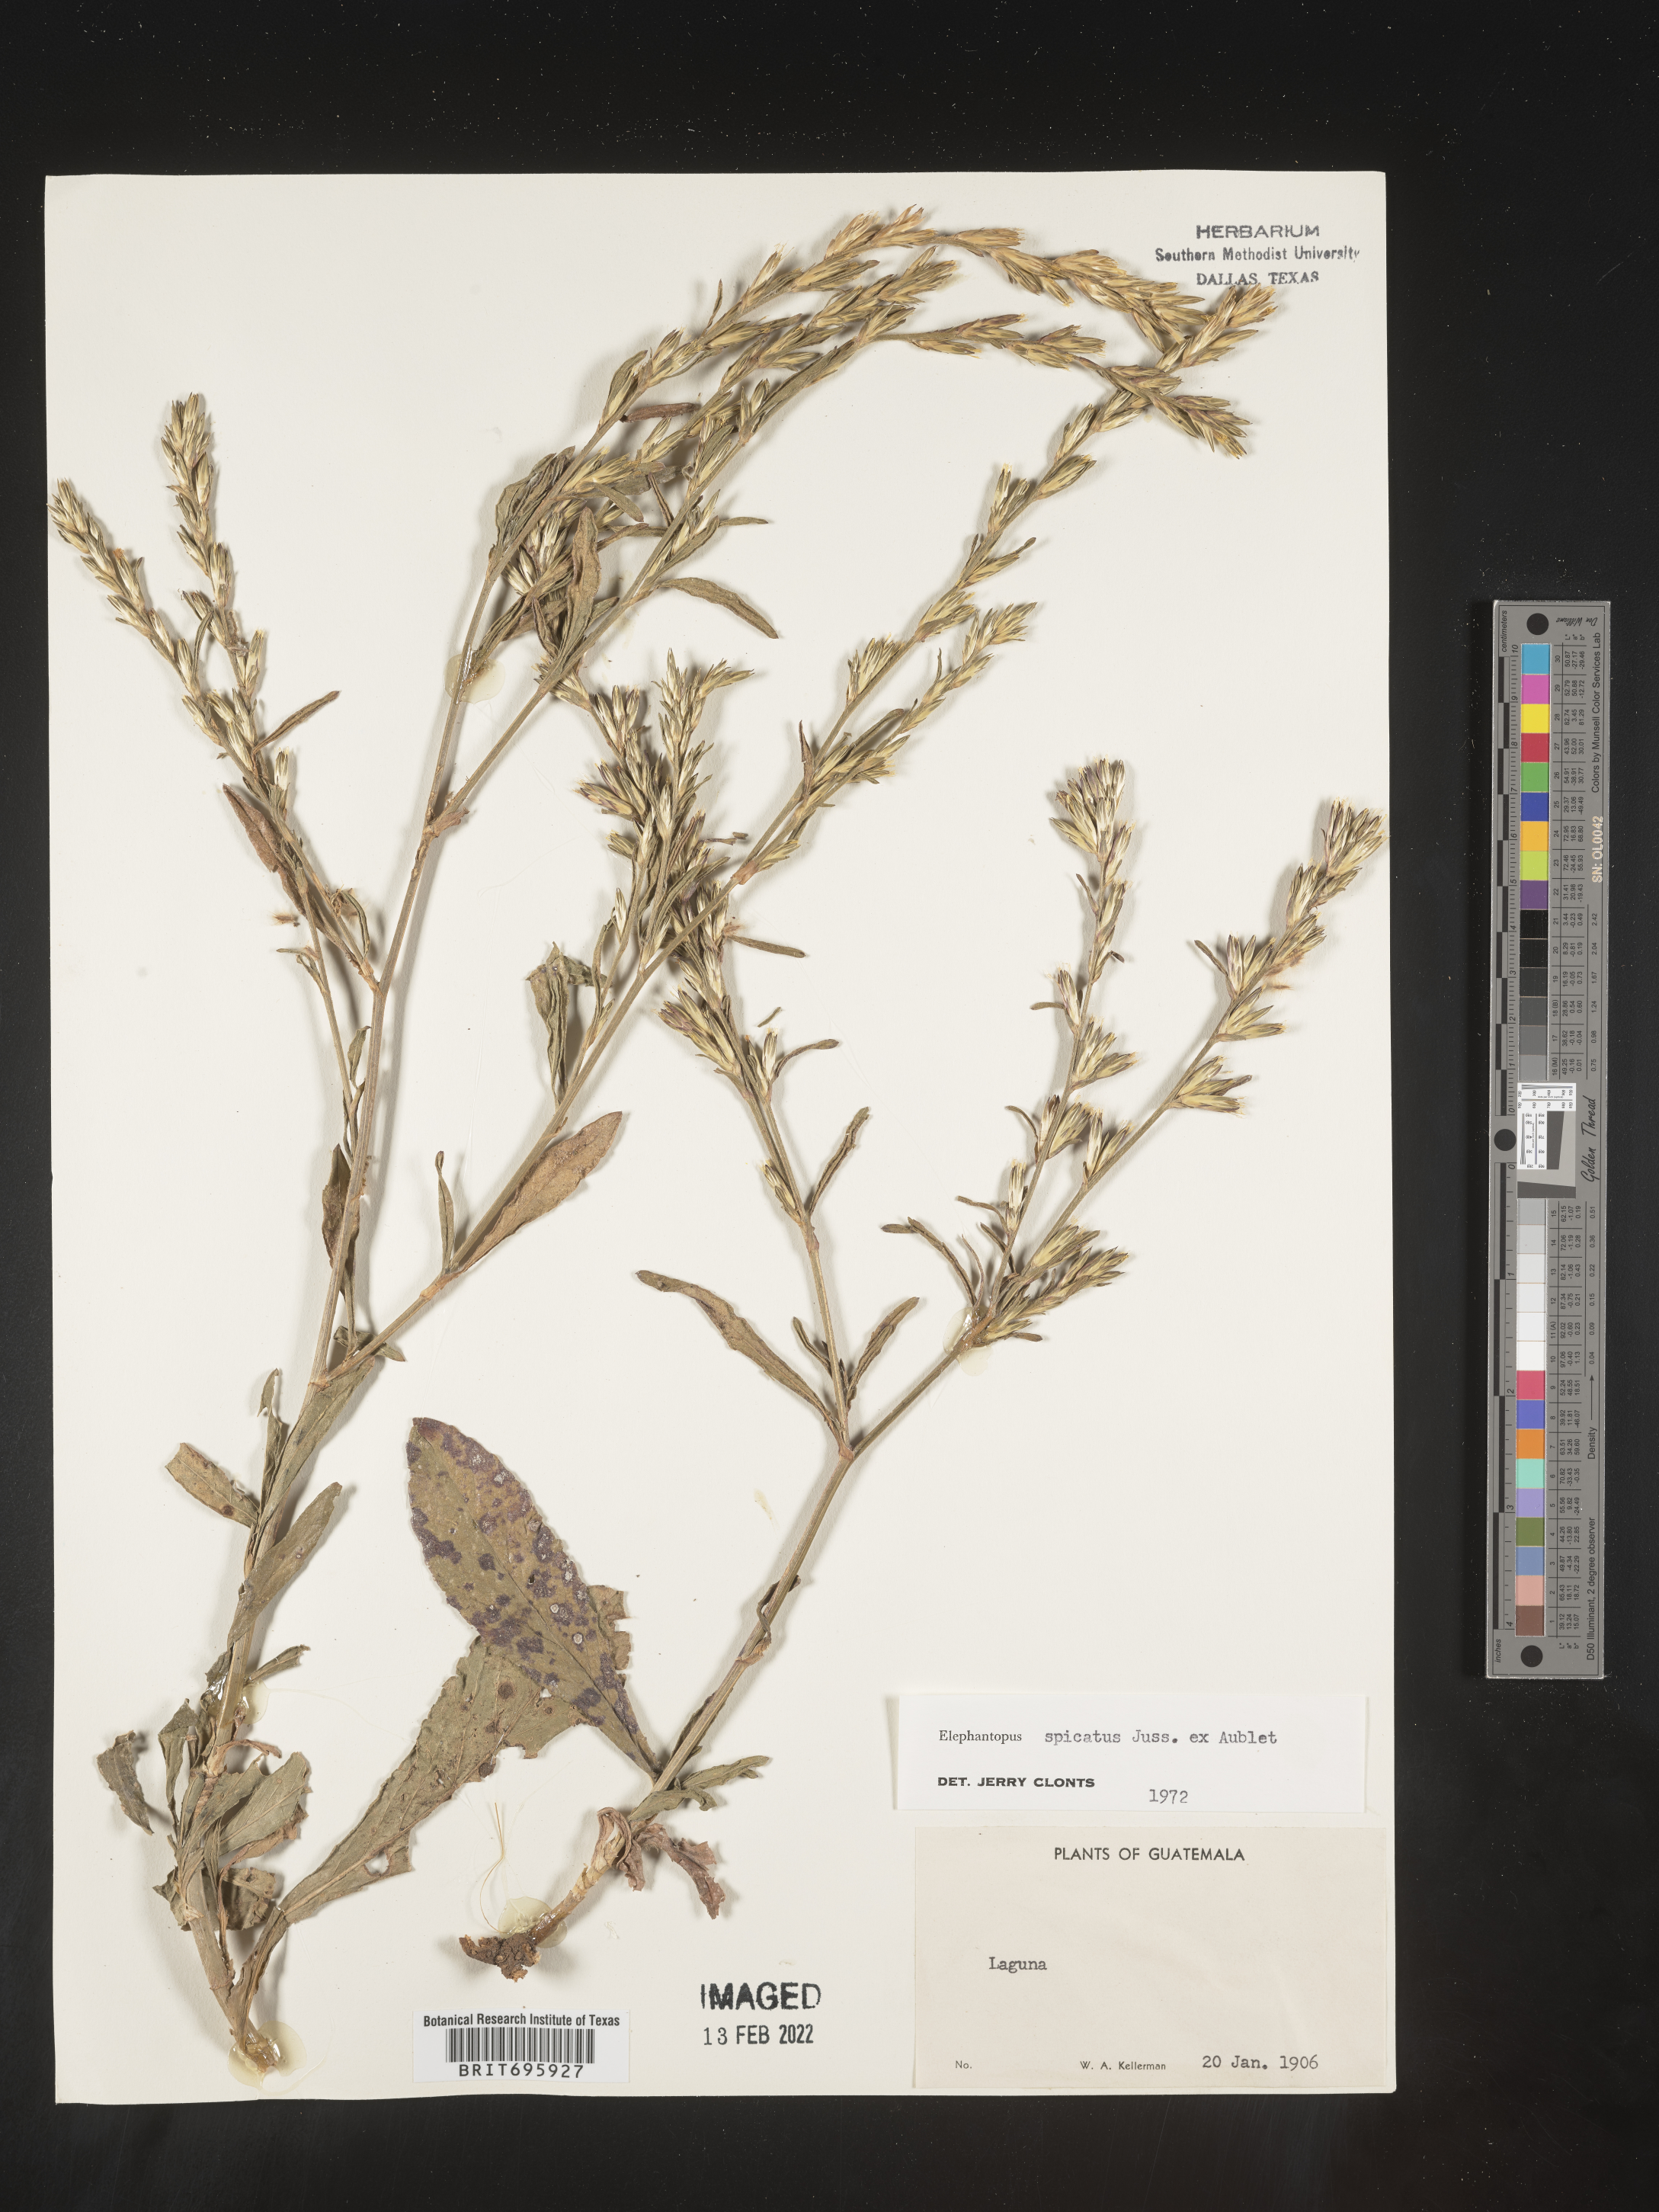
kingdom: Plantae
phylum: Tracheophyta
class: Magnoliopsida
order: Asterales
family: Asteraceae
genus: Elephantopus
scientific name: Elephantopus
